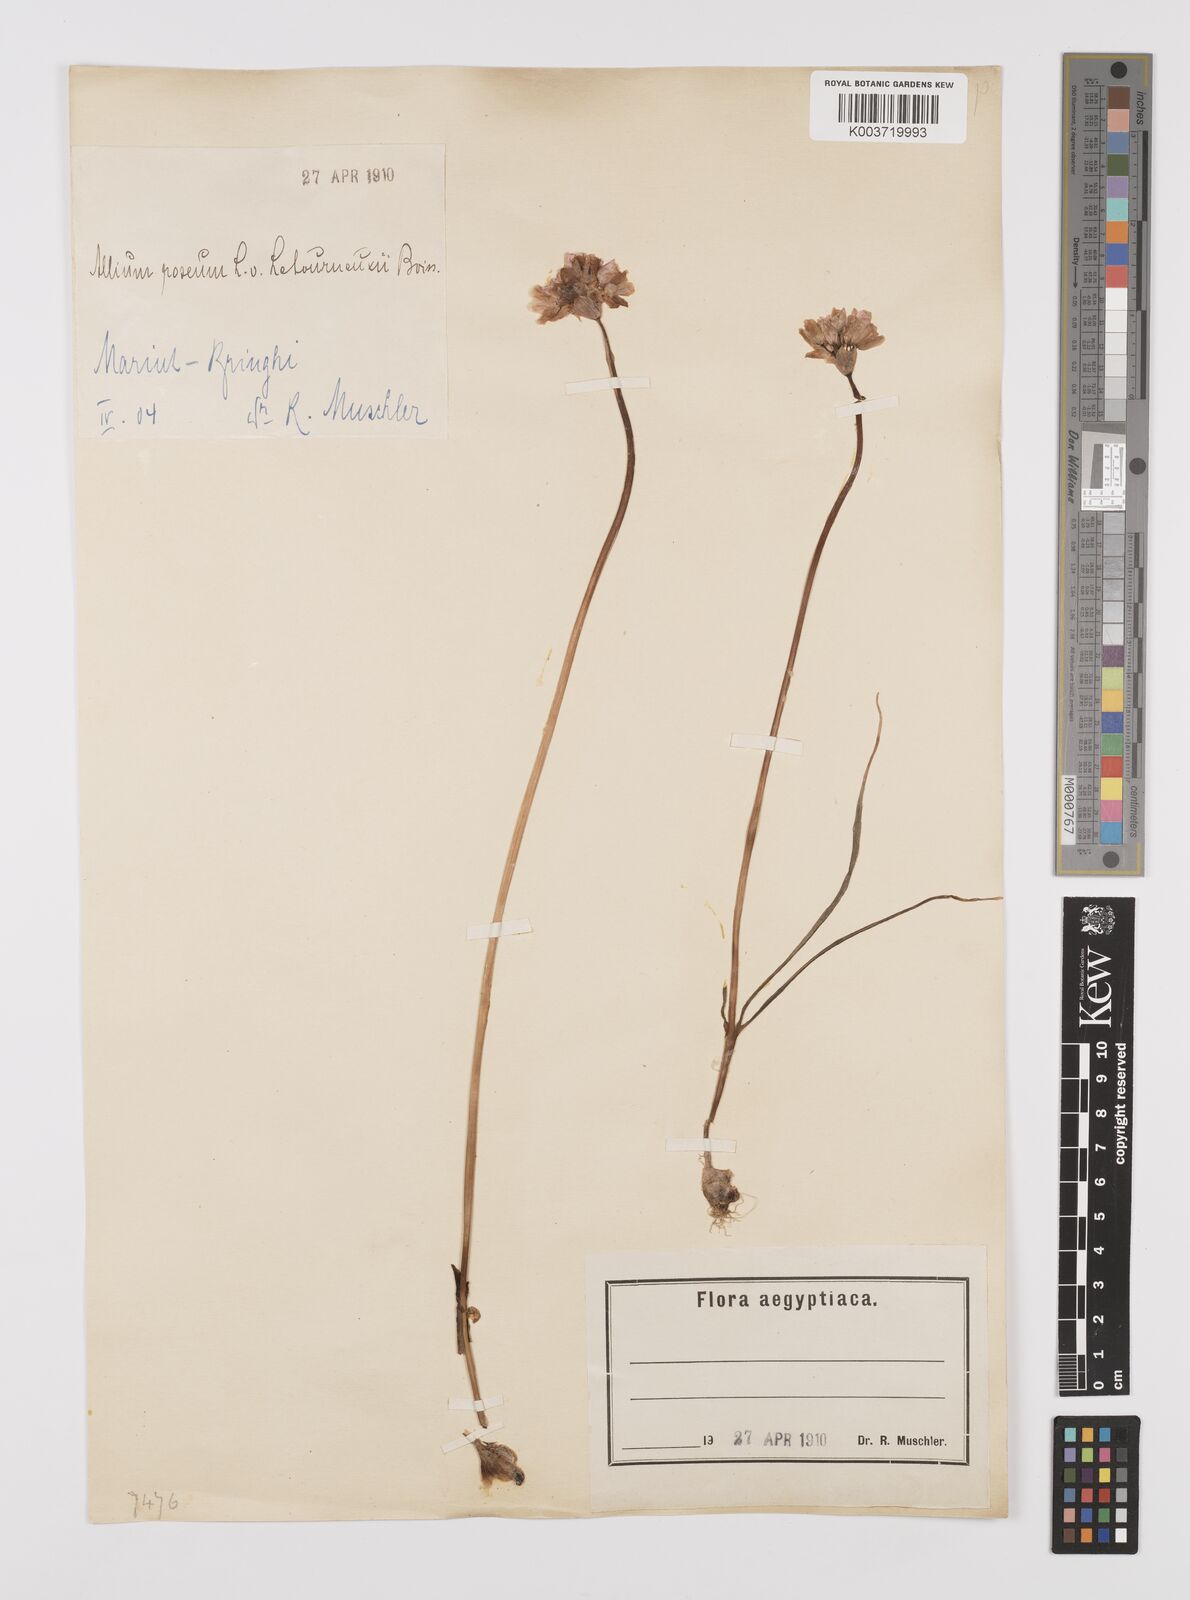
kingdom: Plantae
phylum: Tracheophyta
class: Liliopsida
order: Asparagales
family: Amaryllidaceae
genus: Allium
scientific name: Allium roseum
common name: Rosy garlic
